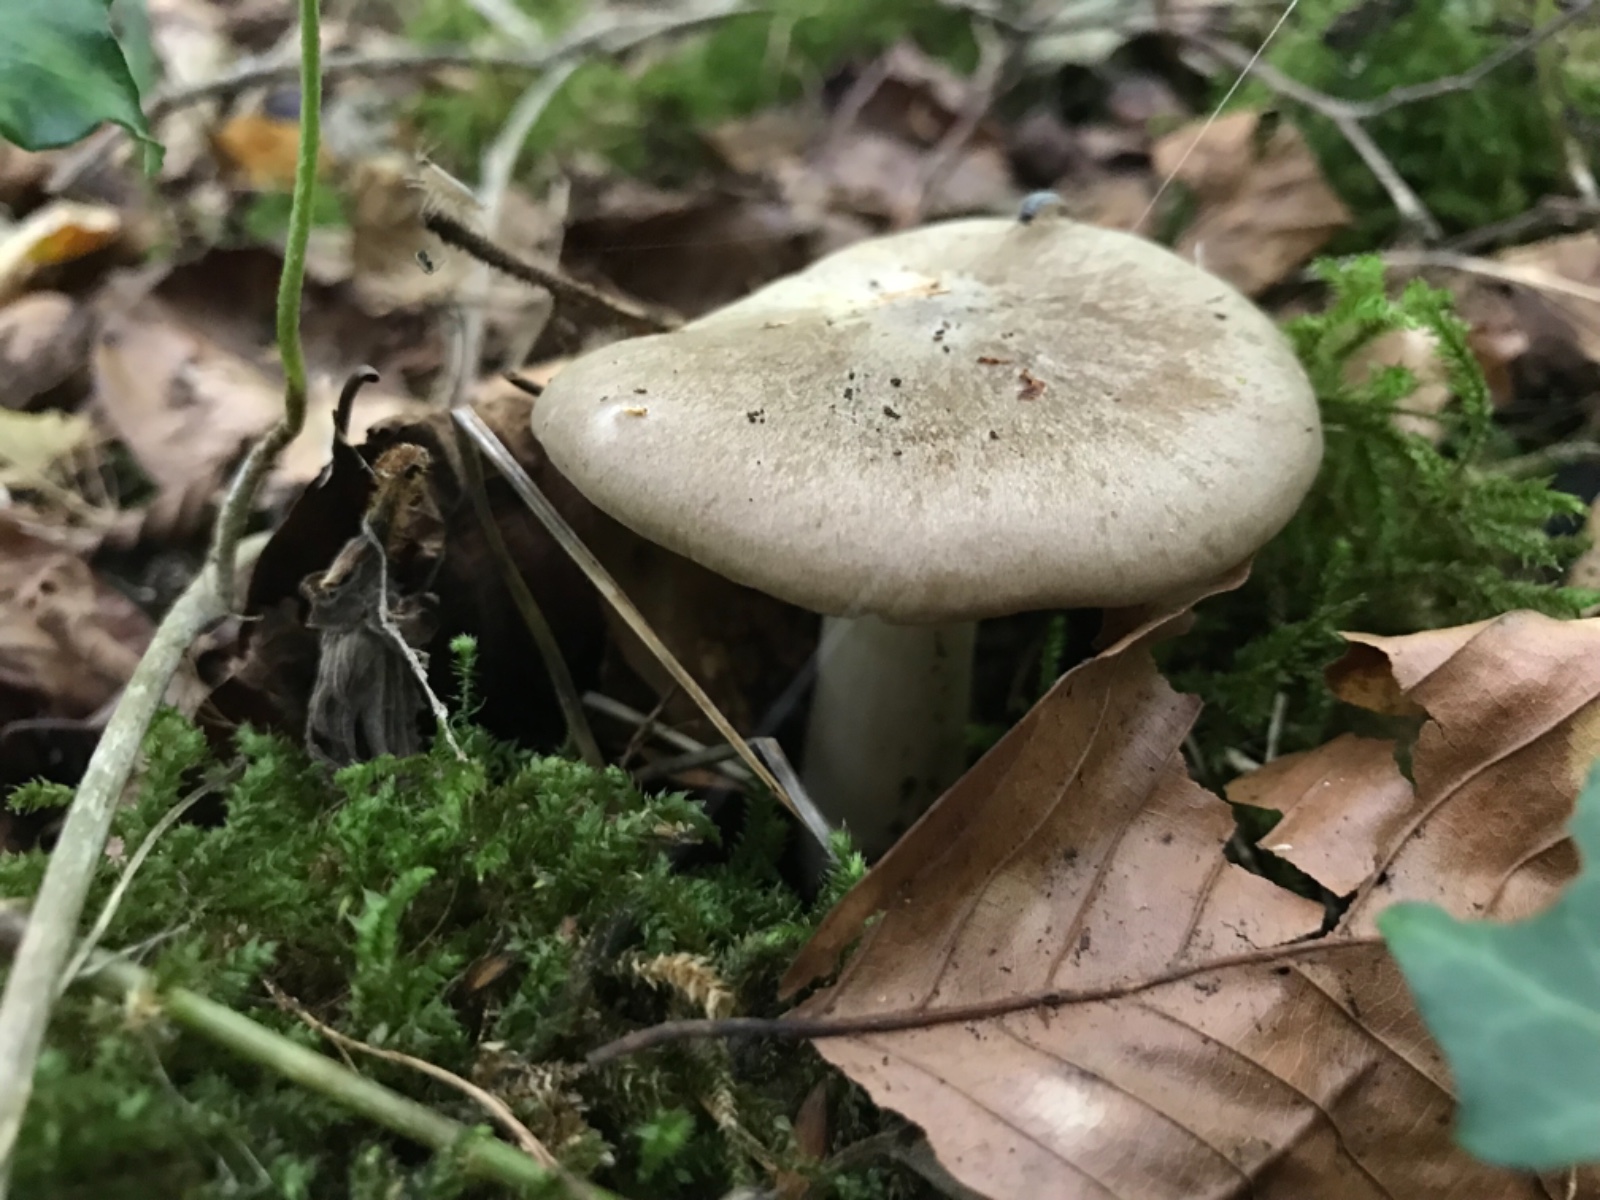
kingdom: Fungi
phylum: Basidiomycota
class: Agaricomycetes
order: Agaricales
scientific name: Agaricales
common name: champignonordenen
